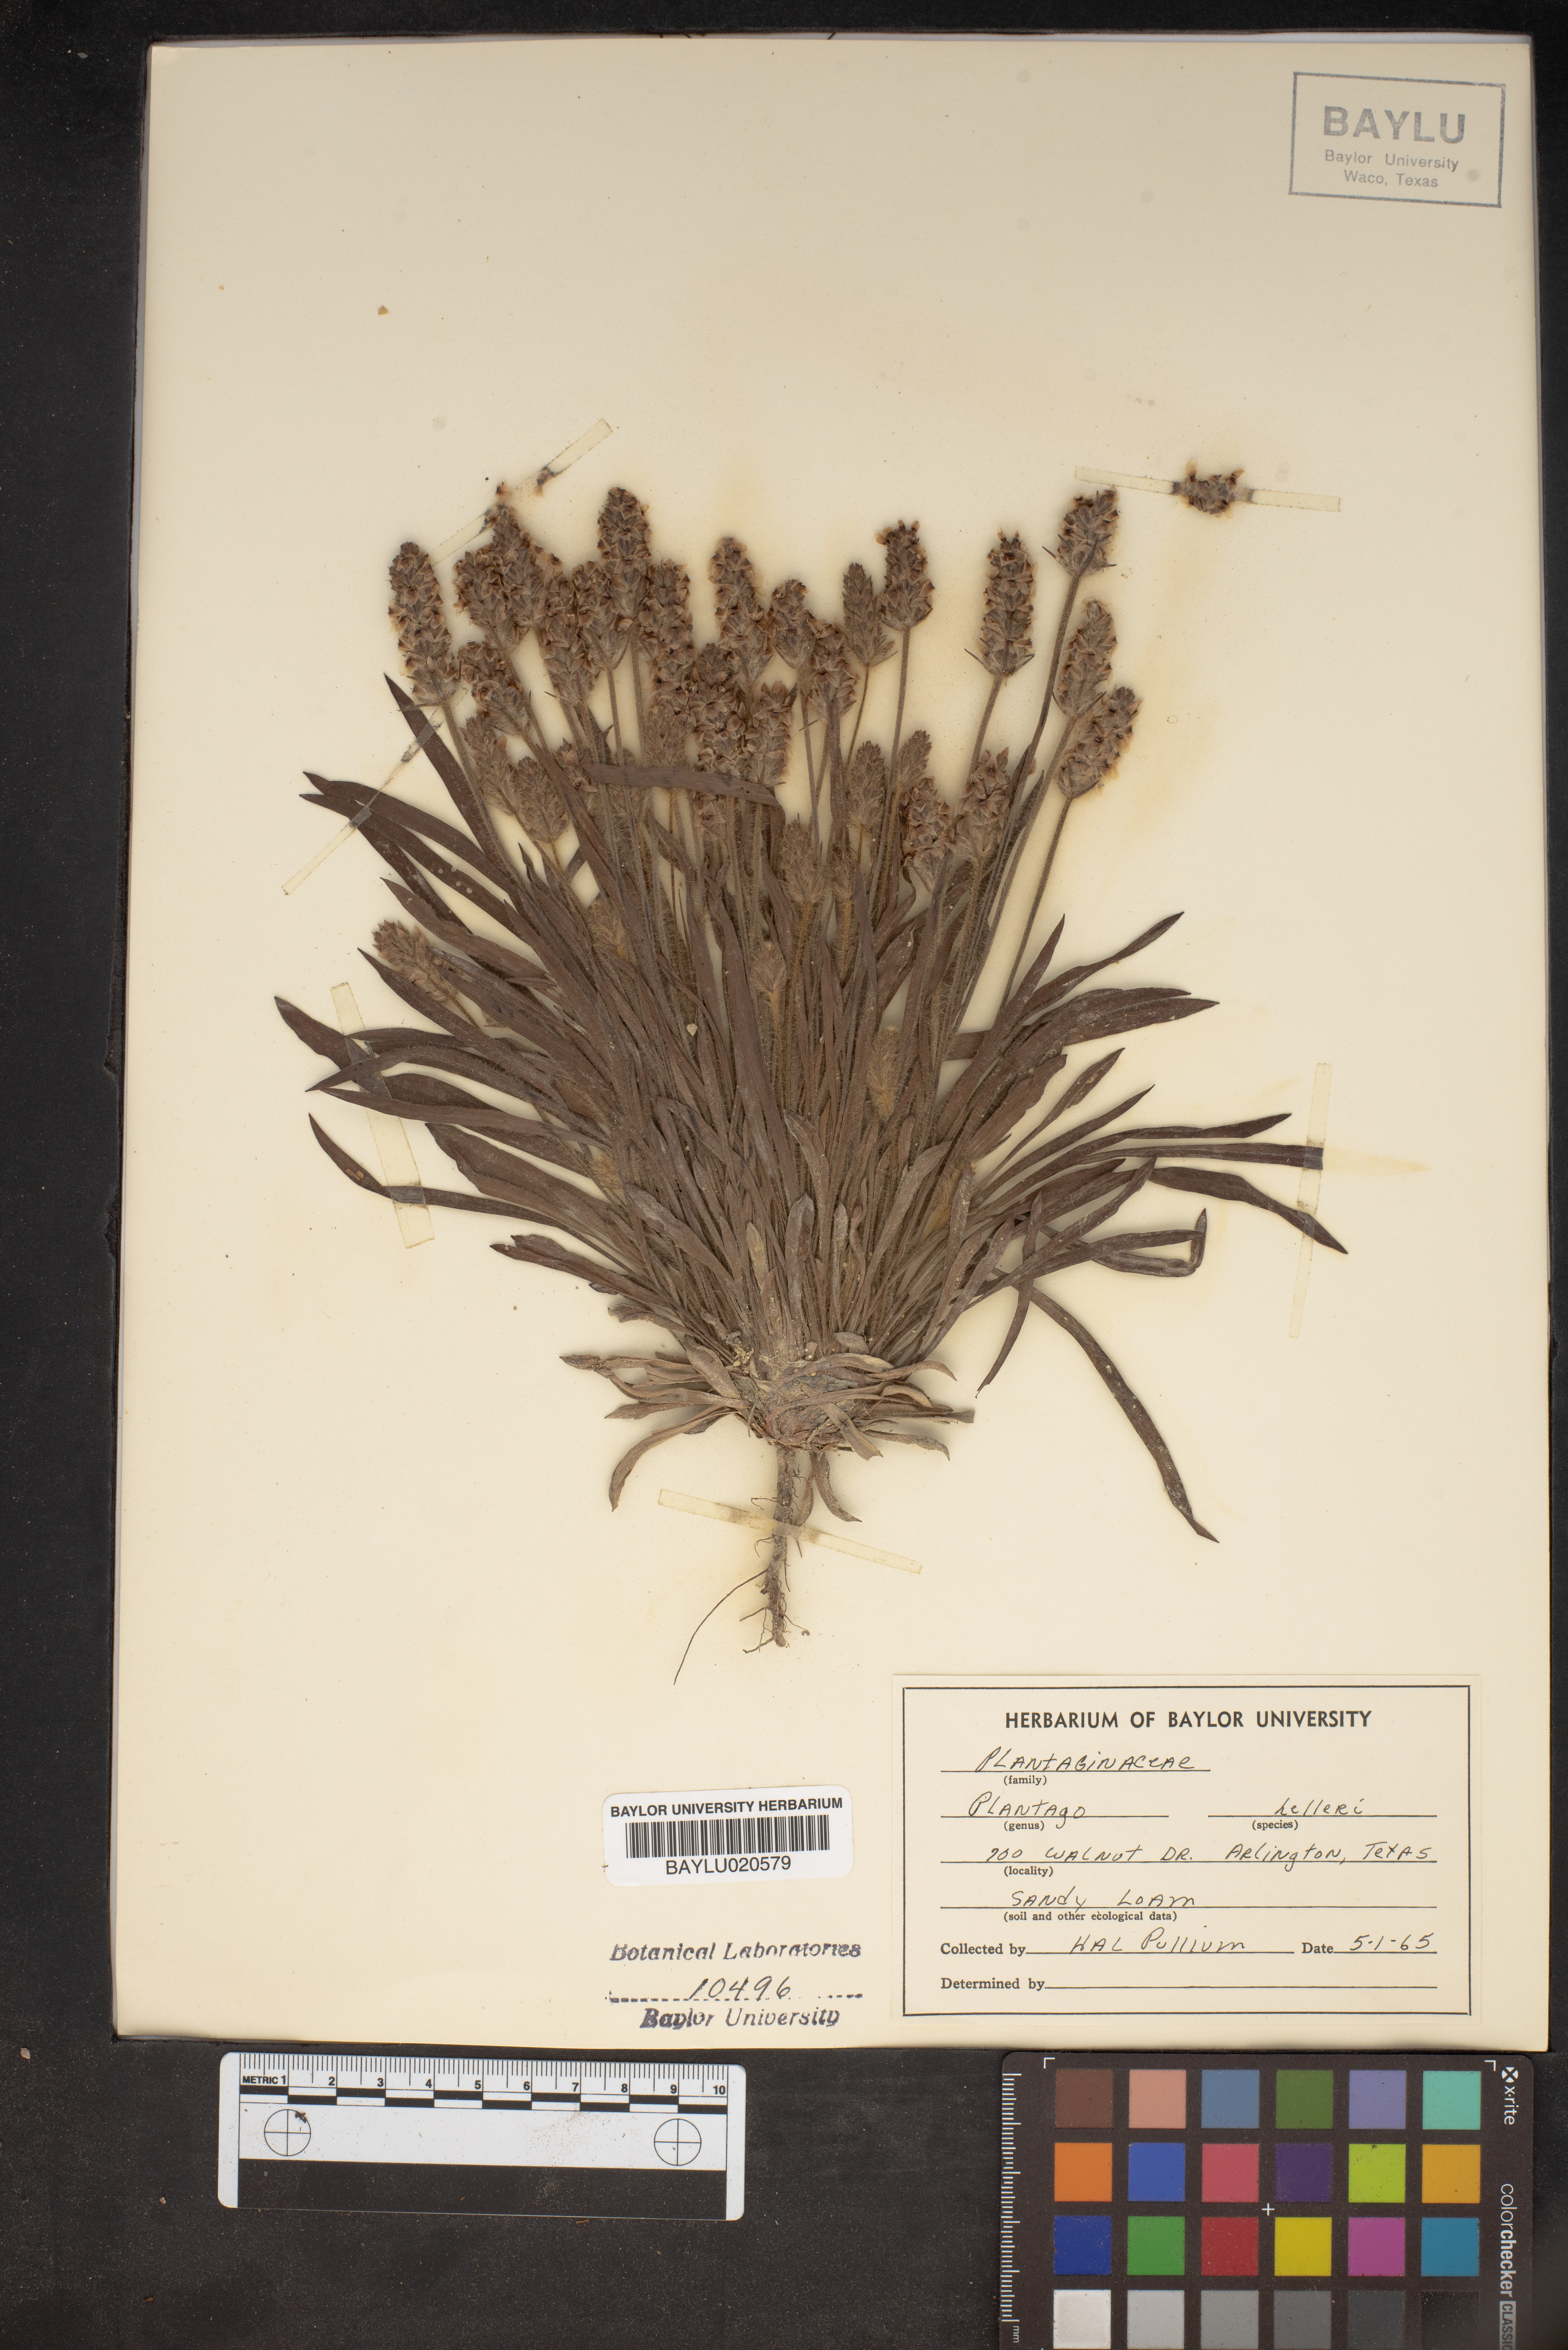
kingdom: Plantae
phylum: Tracheophyta
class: Magnoliopsida
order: Lamiales
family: Plantaginaceae
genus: Plantago
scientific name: Plantago helleri
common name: Heller's plantain
